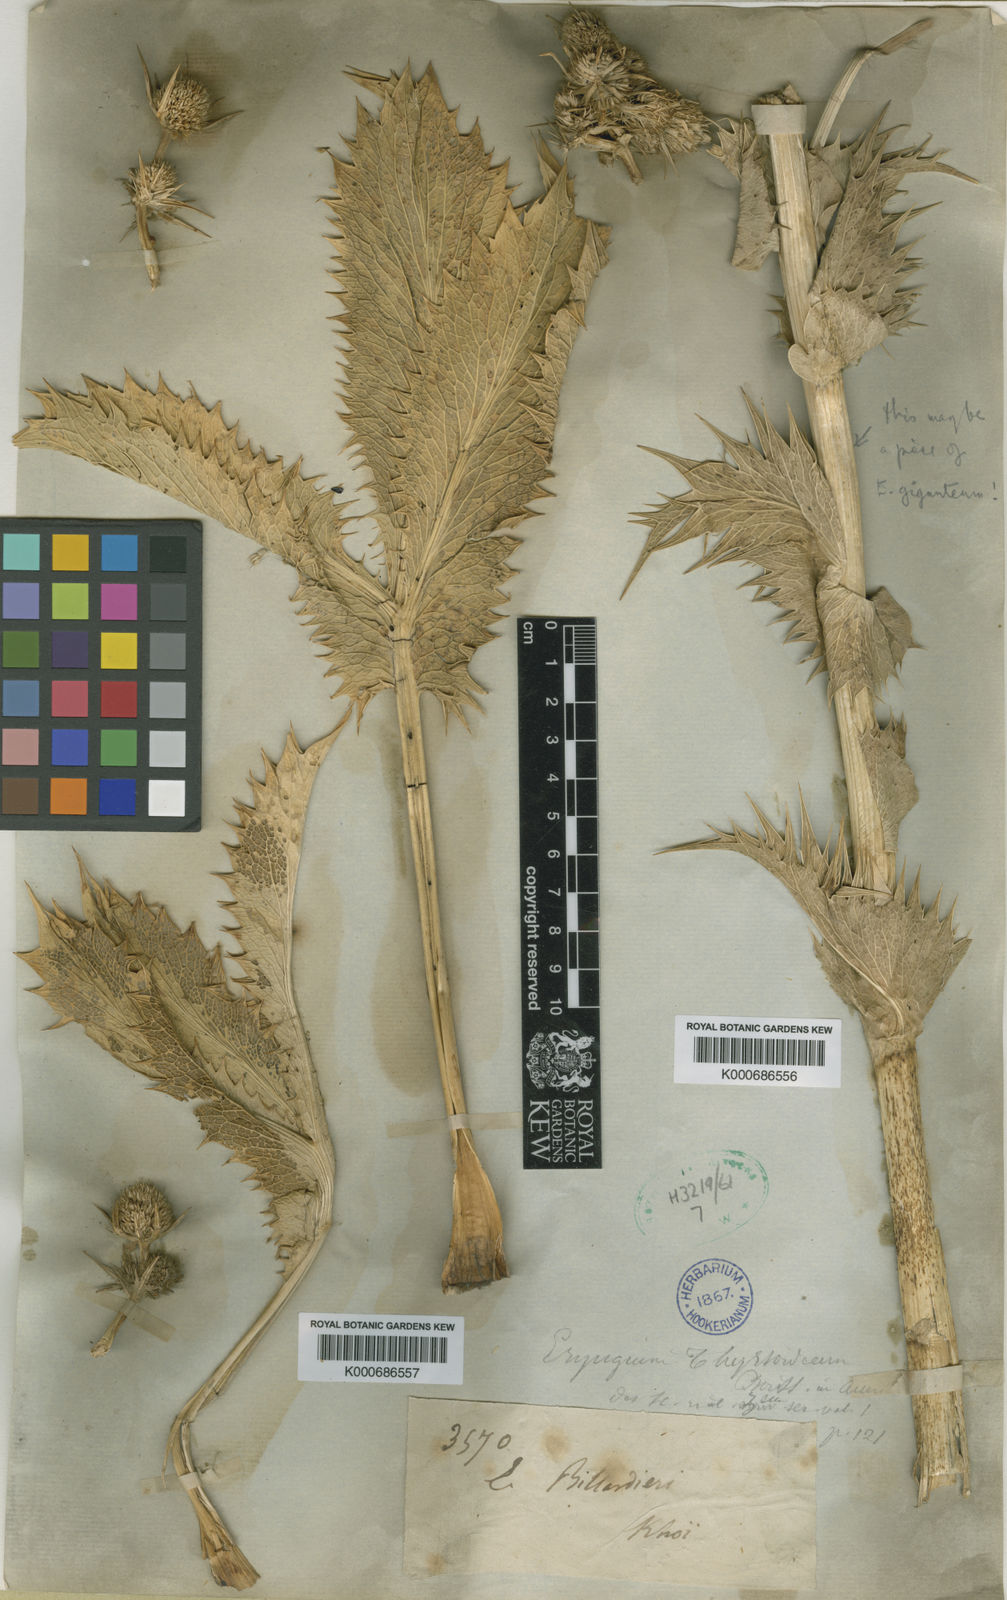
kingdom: Plantae
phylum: Tracheophyta
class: Magnoliopsida
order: Apiales
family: Apiaceae
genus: Eryngium
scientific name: Eryngium thyrsoideum
